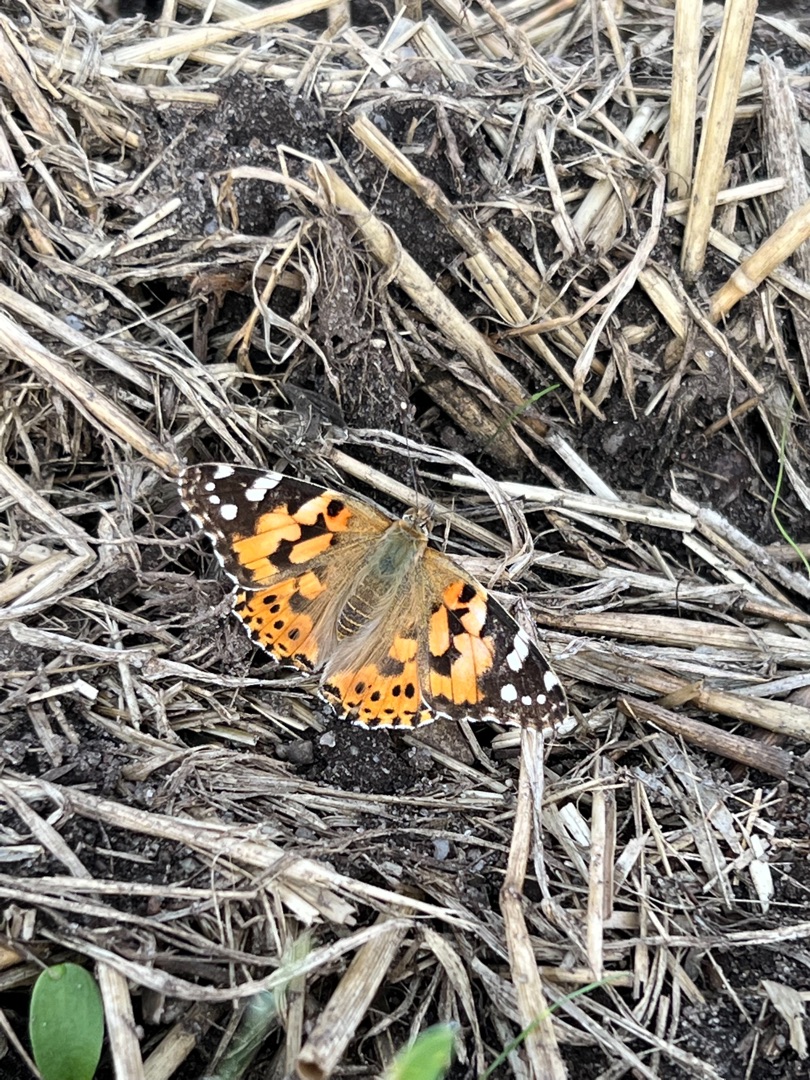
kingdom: Animalia
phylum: Arthropoda
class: Insecta
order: Lepidoptera
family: Nymphalidae
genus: Vanessa
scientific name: Vanessa cardui
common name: Tidselsommerfugl
